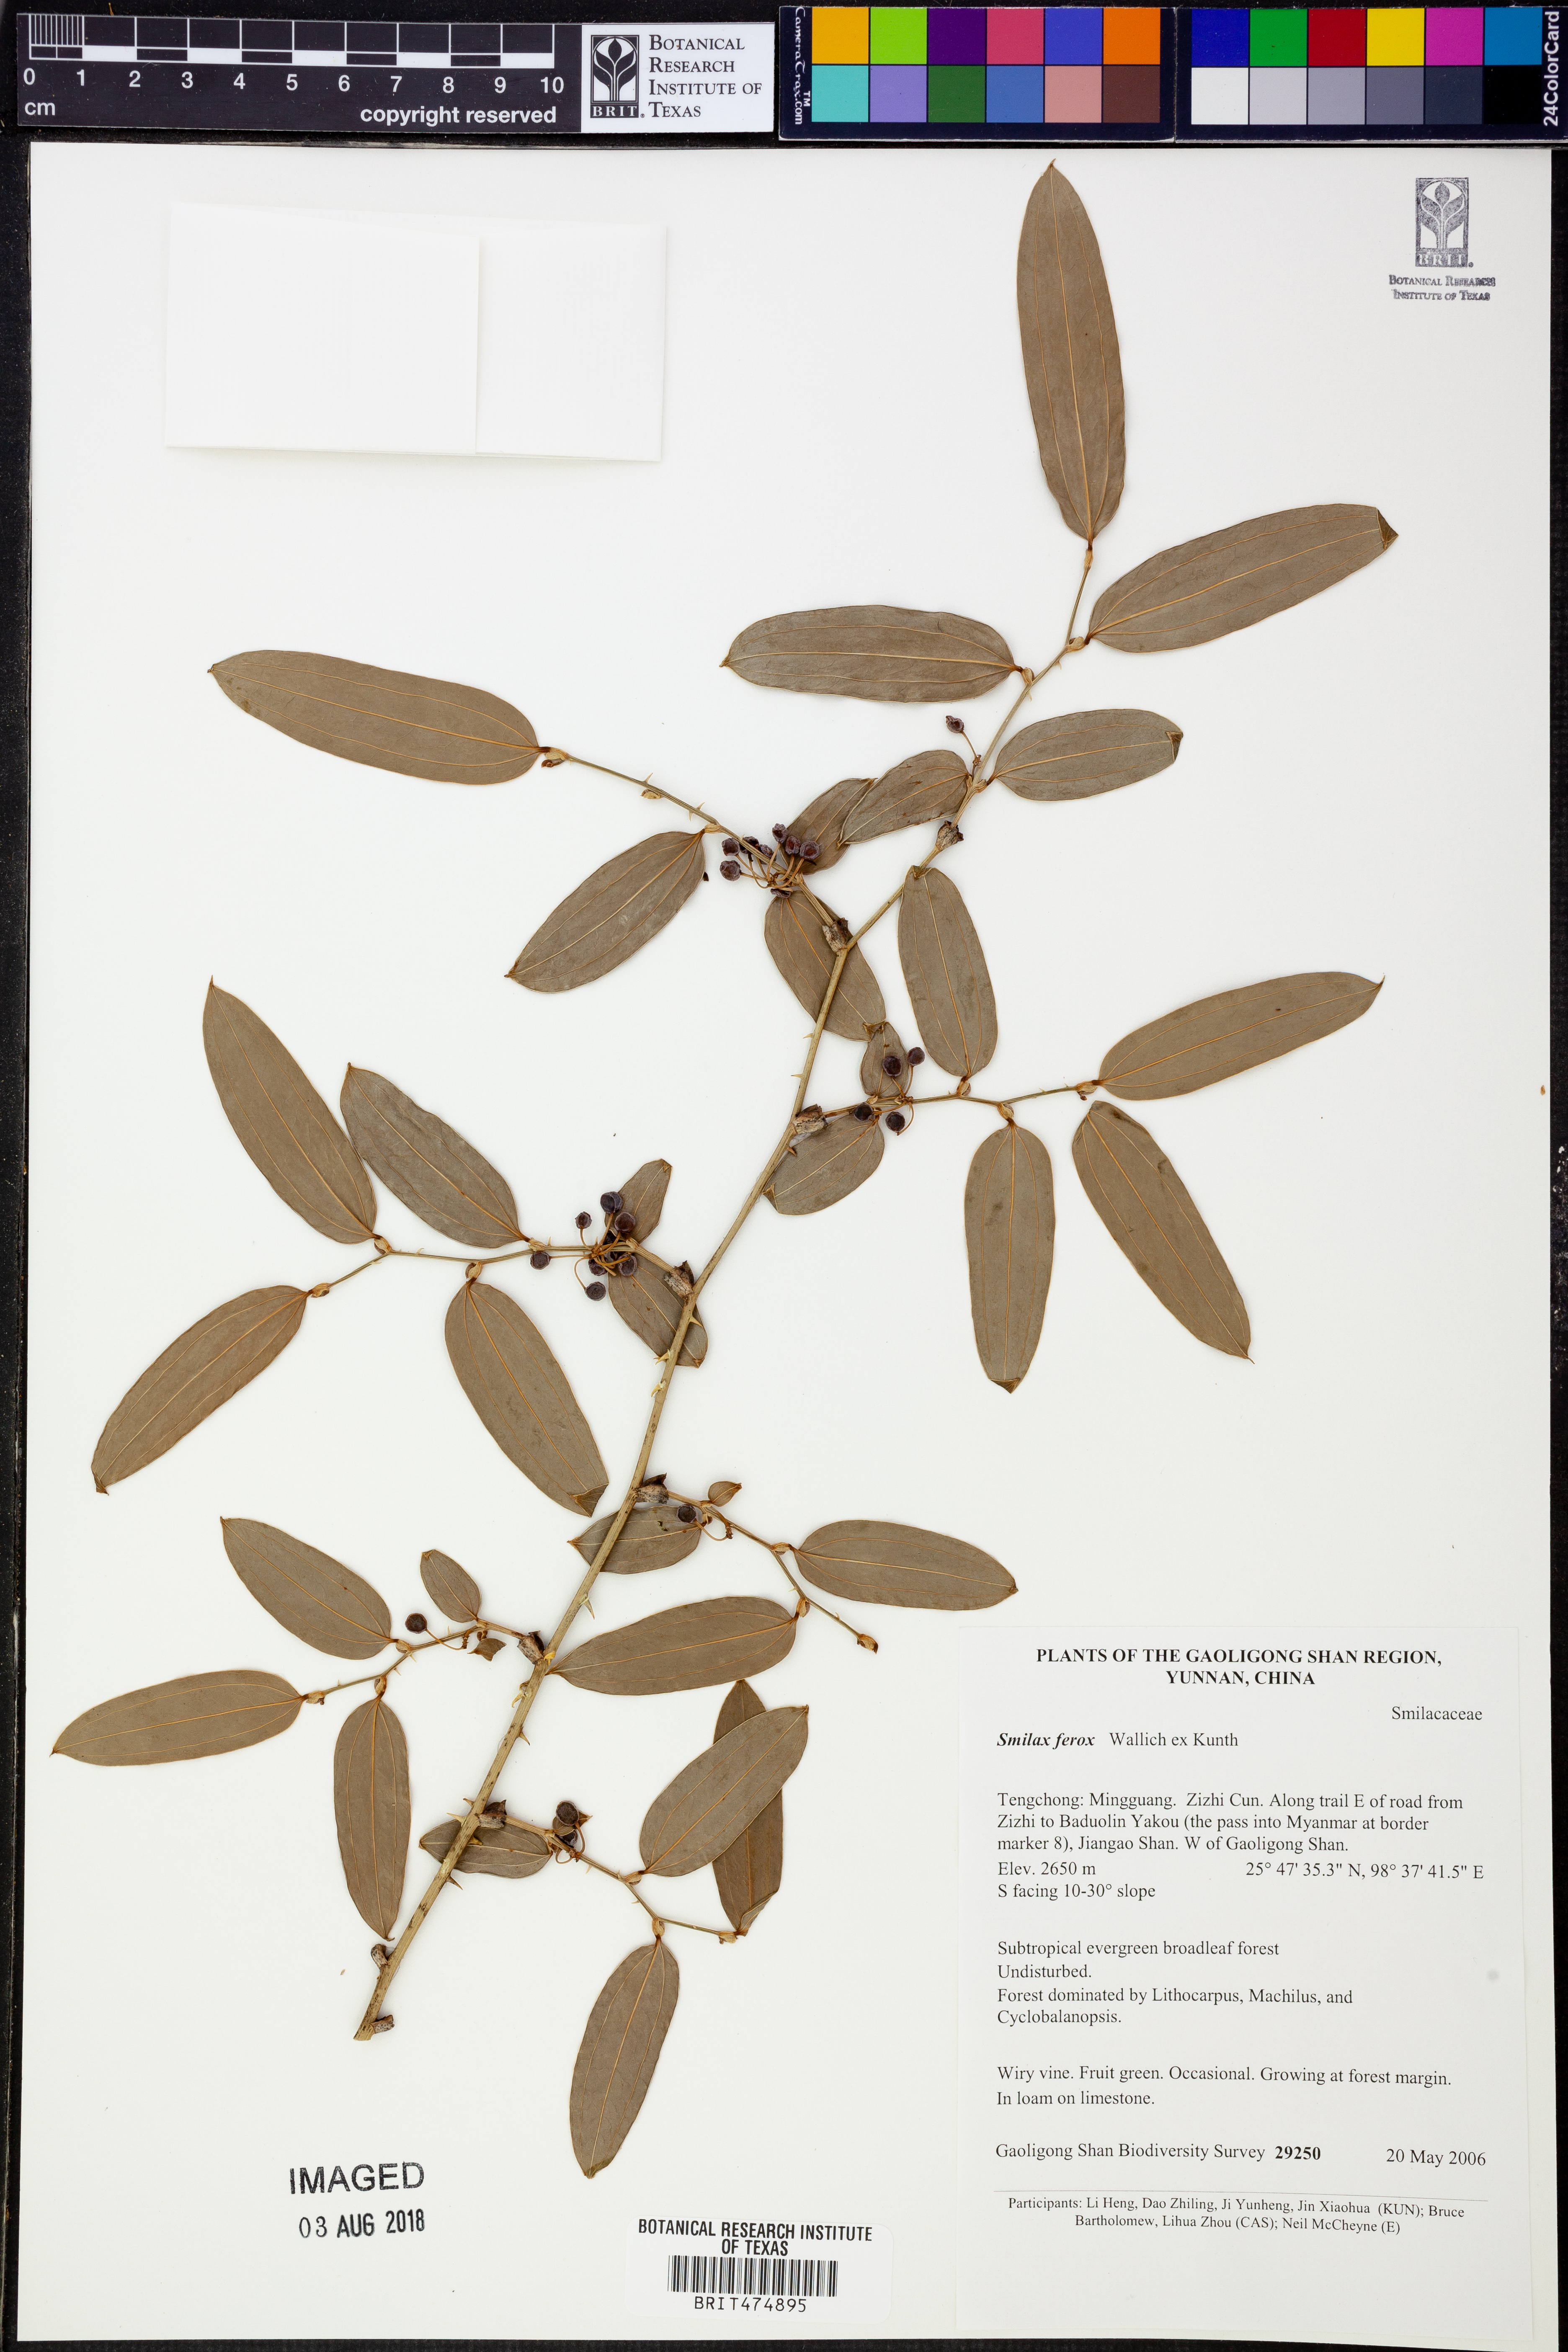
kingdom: Plantae
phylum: Tracheophyta
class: Liliopsida
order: Liliales
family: Smilacaceae
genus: Smilax
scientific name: Smilax ferox
